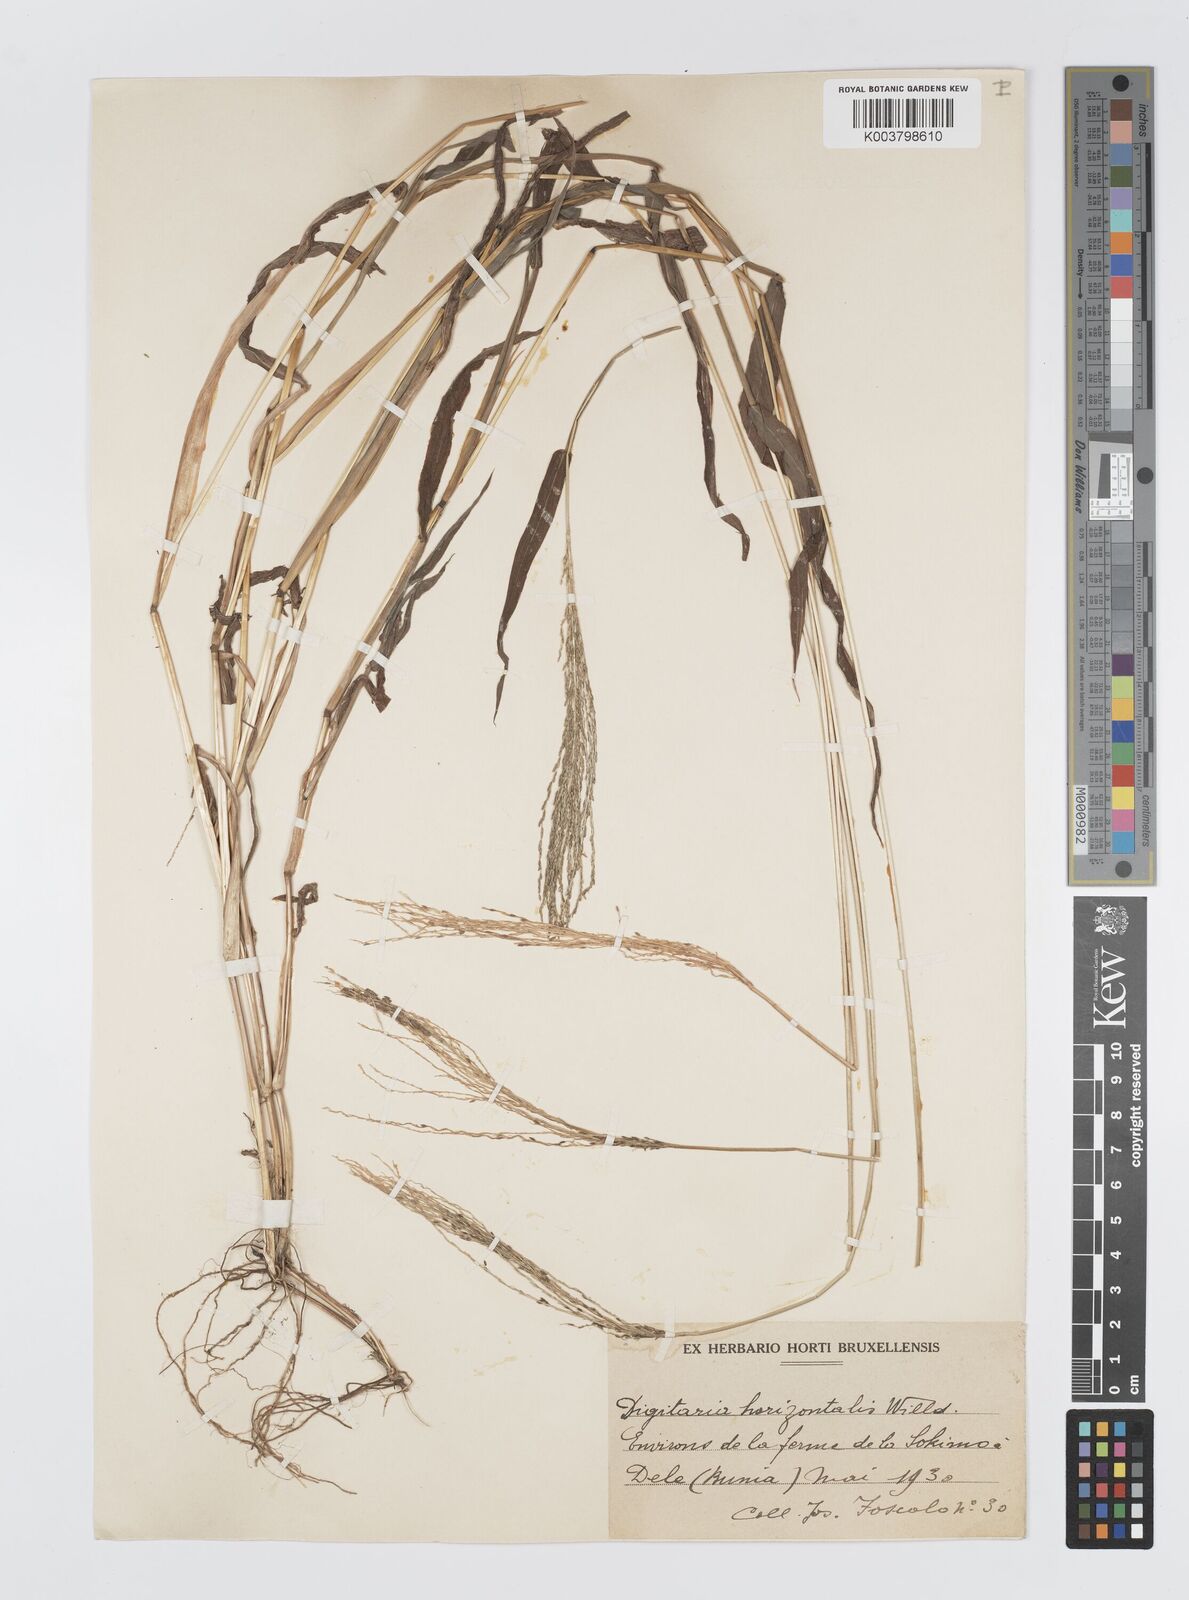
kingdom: Plantae
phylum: Tracheophyta
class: Liliopsida
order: Poales
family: Poaceae
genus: Digitaria
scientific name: Digitaria velutina
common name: Long-plume finger grass
